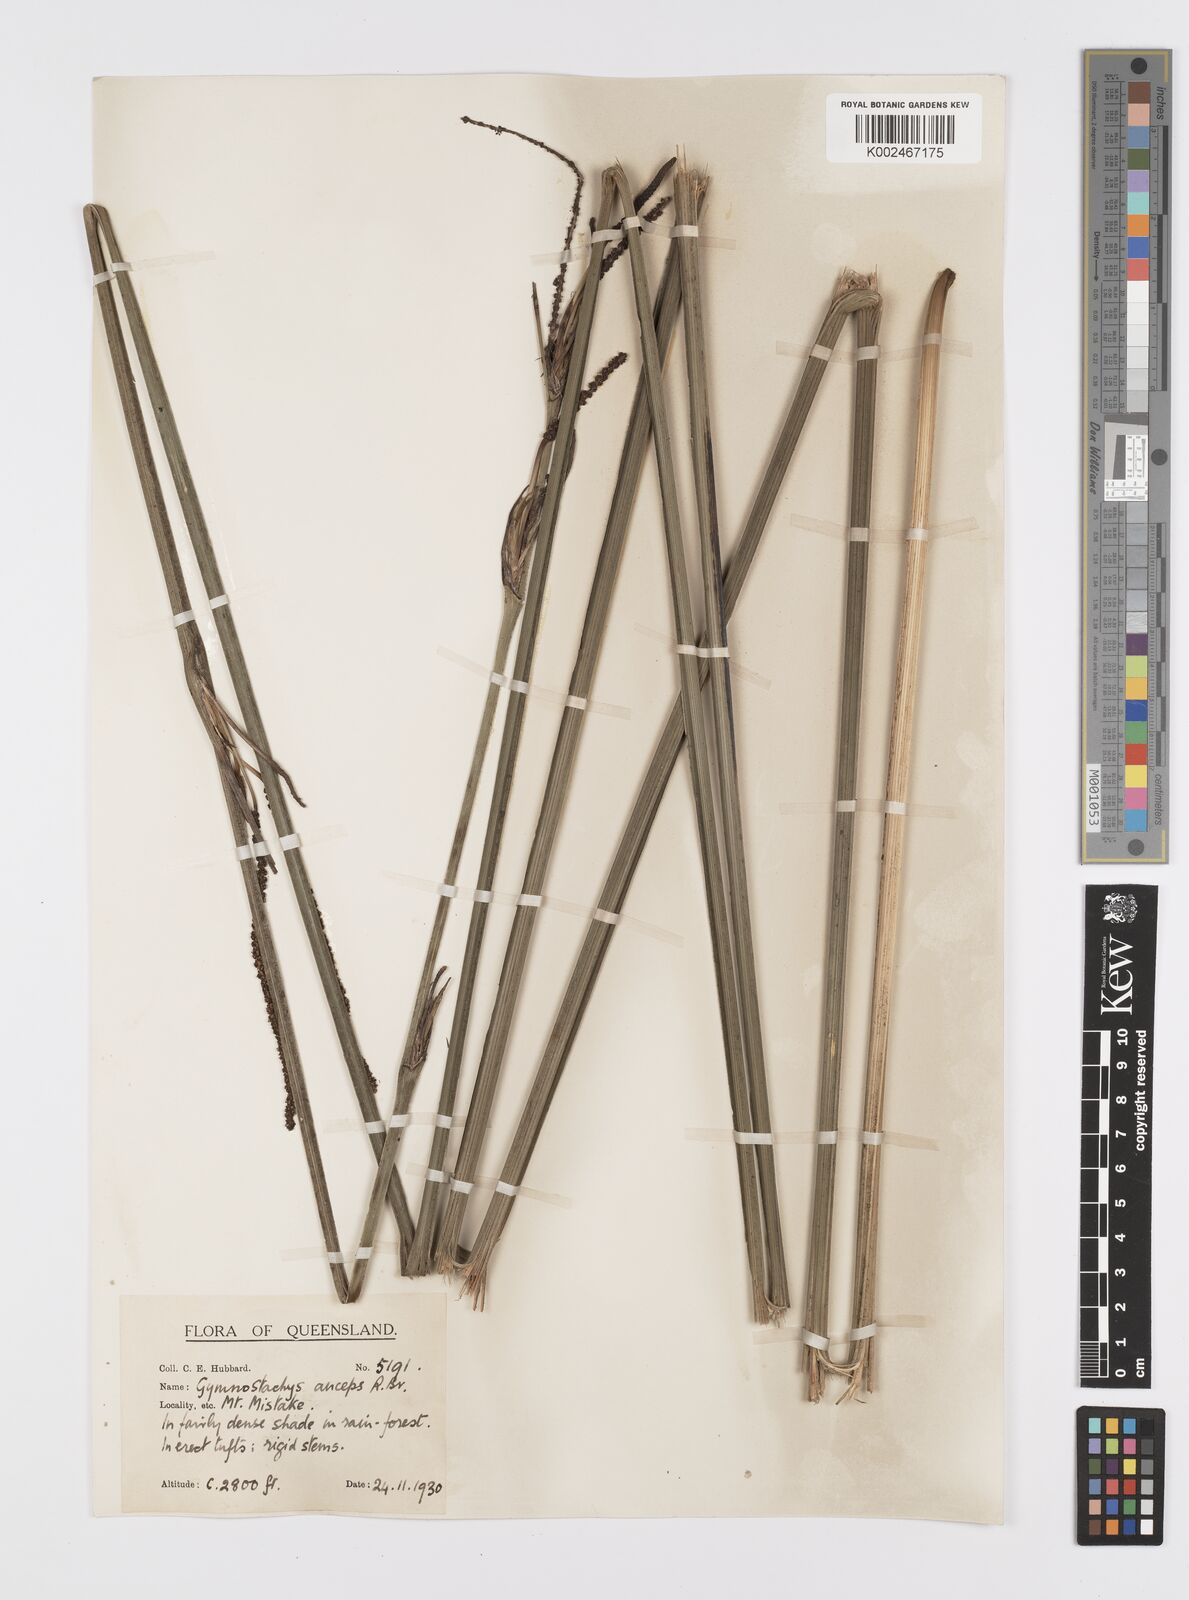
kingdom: Plantae
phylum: Tracheophyta
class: Liliopsida
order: Alismatales
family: Araceae
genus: Gymnostachys
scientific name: Gymnostachys anceps
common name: Settler's-flax
